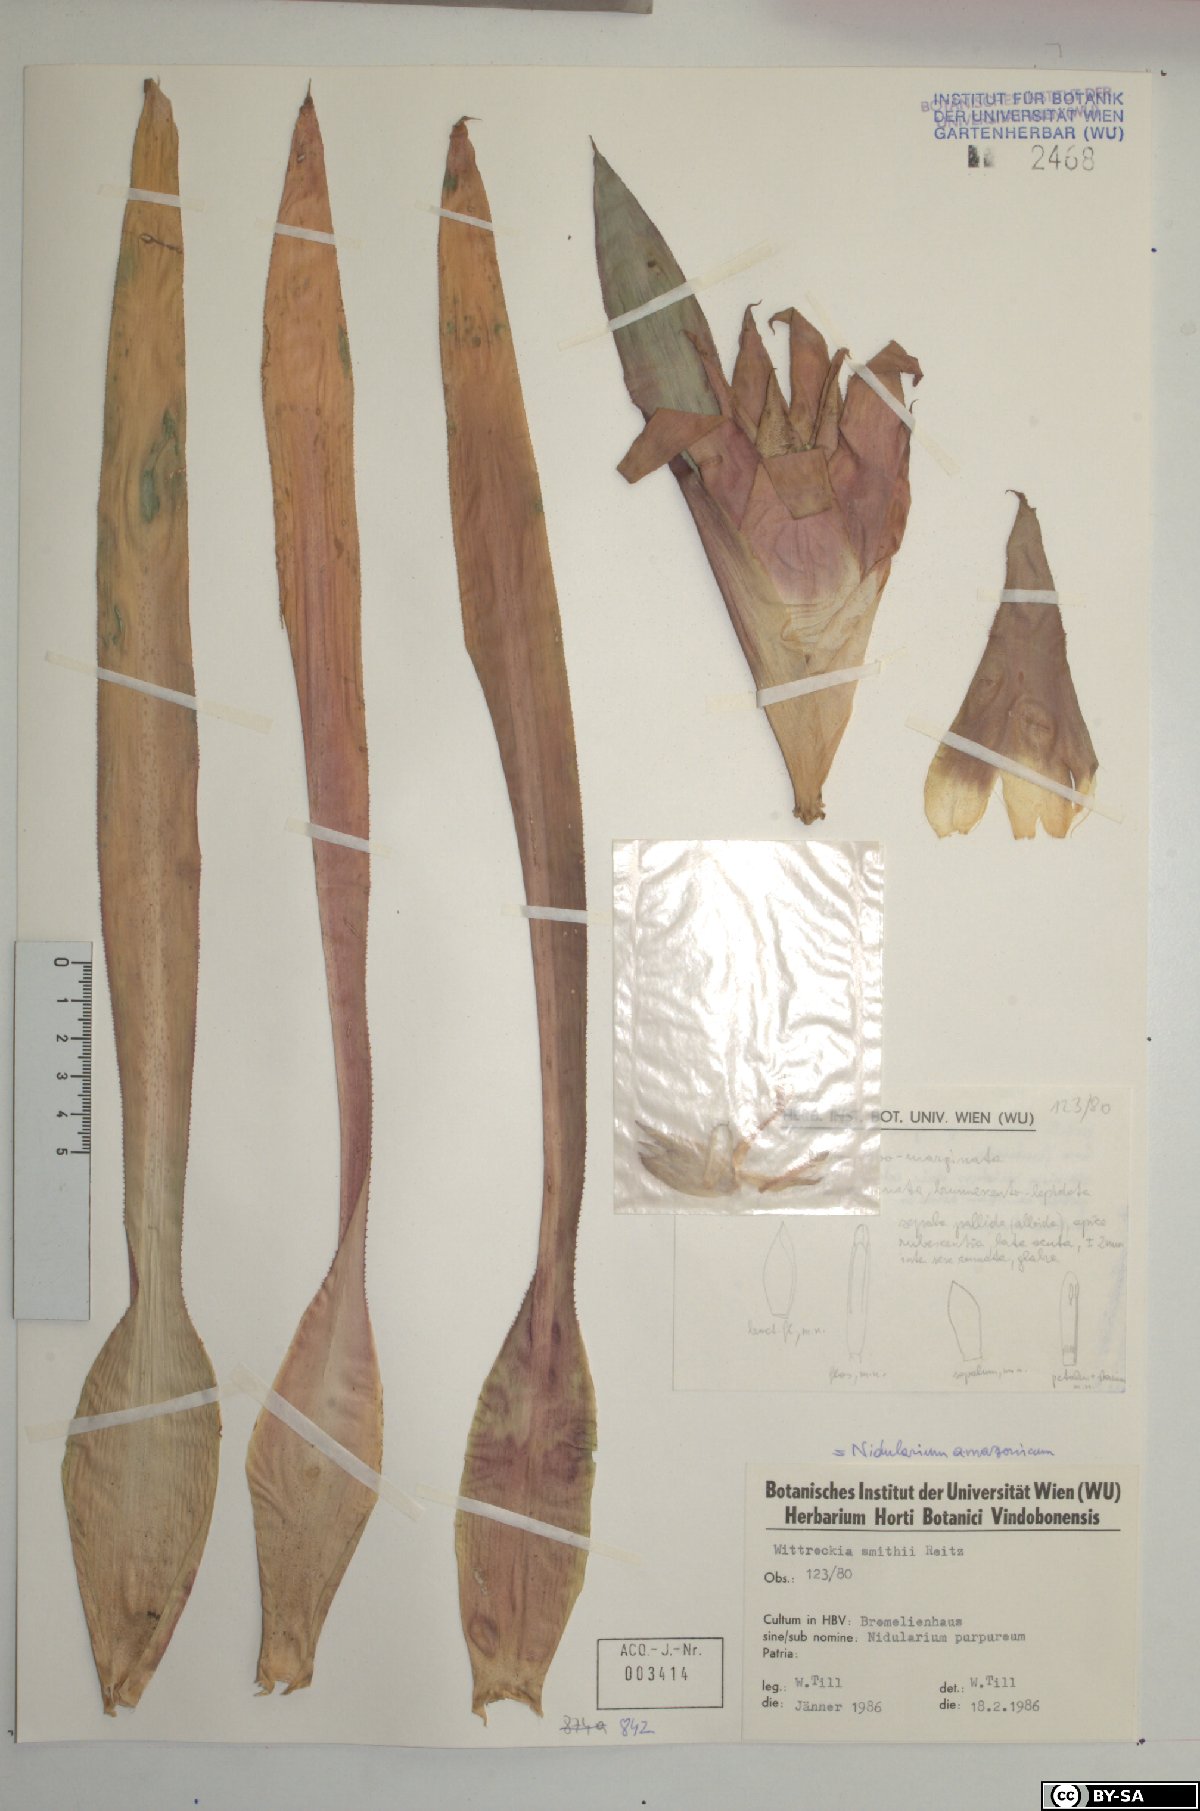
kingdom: Plantae
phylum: Tracheophyta
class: Liliopsida
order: Poales
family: Bromeliaceae
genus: Nidularium
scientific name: Nidularium amazonicum
